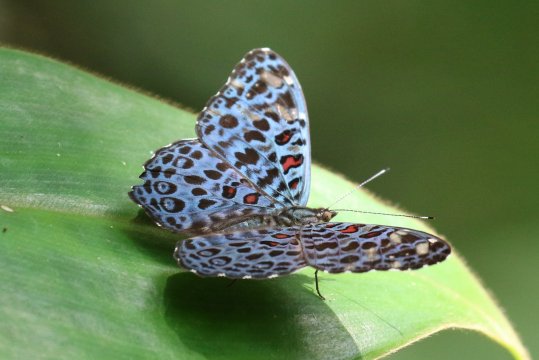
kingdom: Animalia
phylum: Arthropoda
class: Insecta
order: Lepidoptera
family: Nymphalidae
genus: Hamadryas
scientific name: Hamadryas chloe
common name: Amazon Cracker
